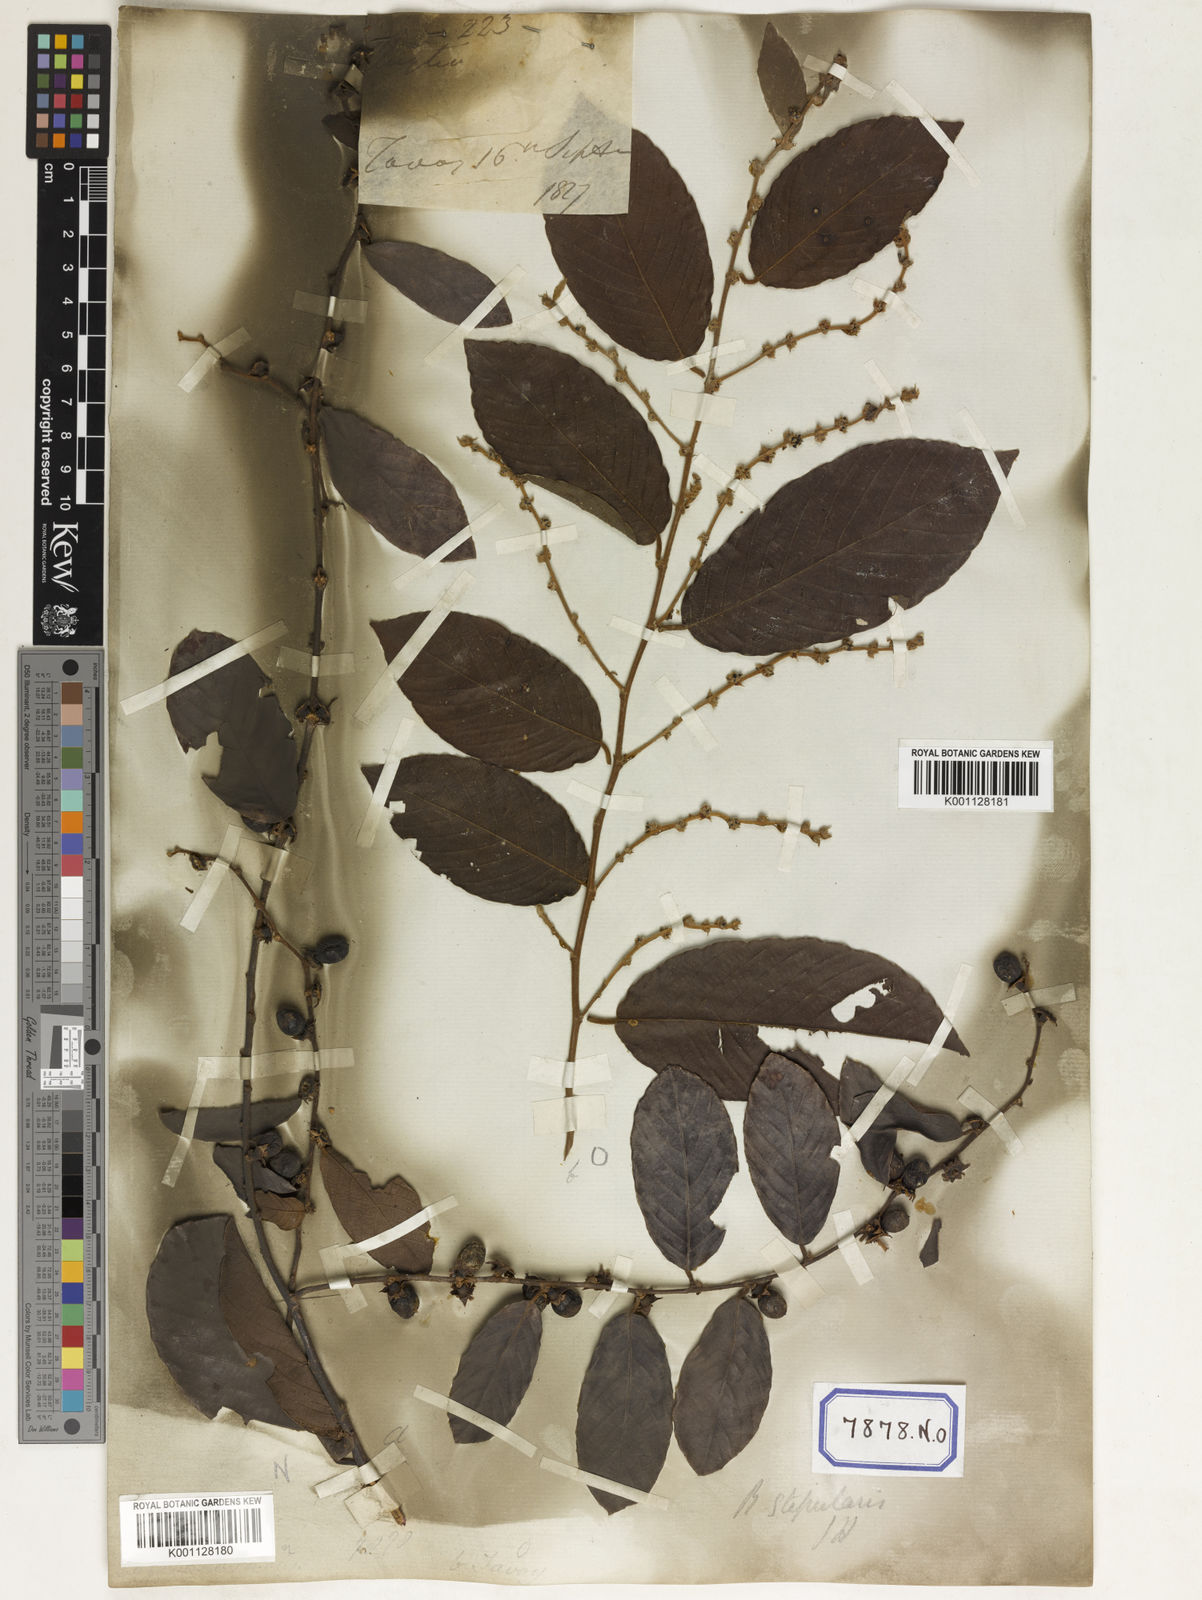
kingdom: Plantae
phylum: Tracheophyta
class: Magnoliopsida
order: Malpighiales
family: Phyllanthaceae
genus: Bridelia
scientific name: Bridelia
